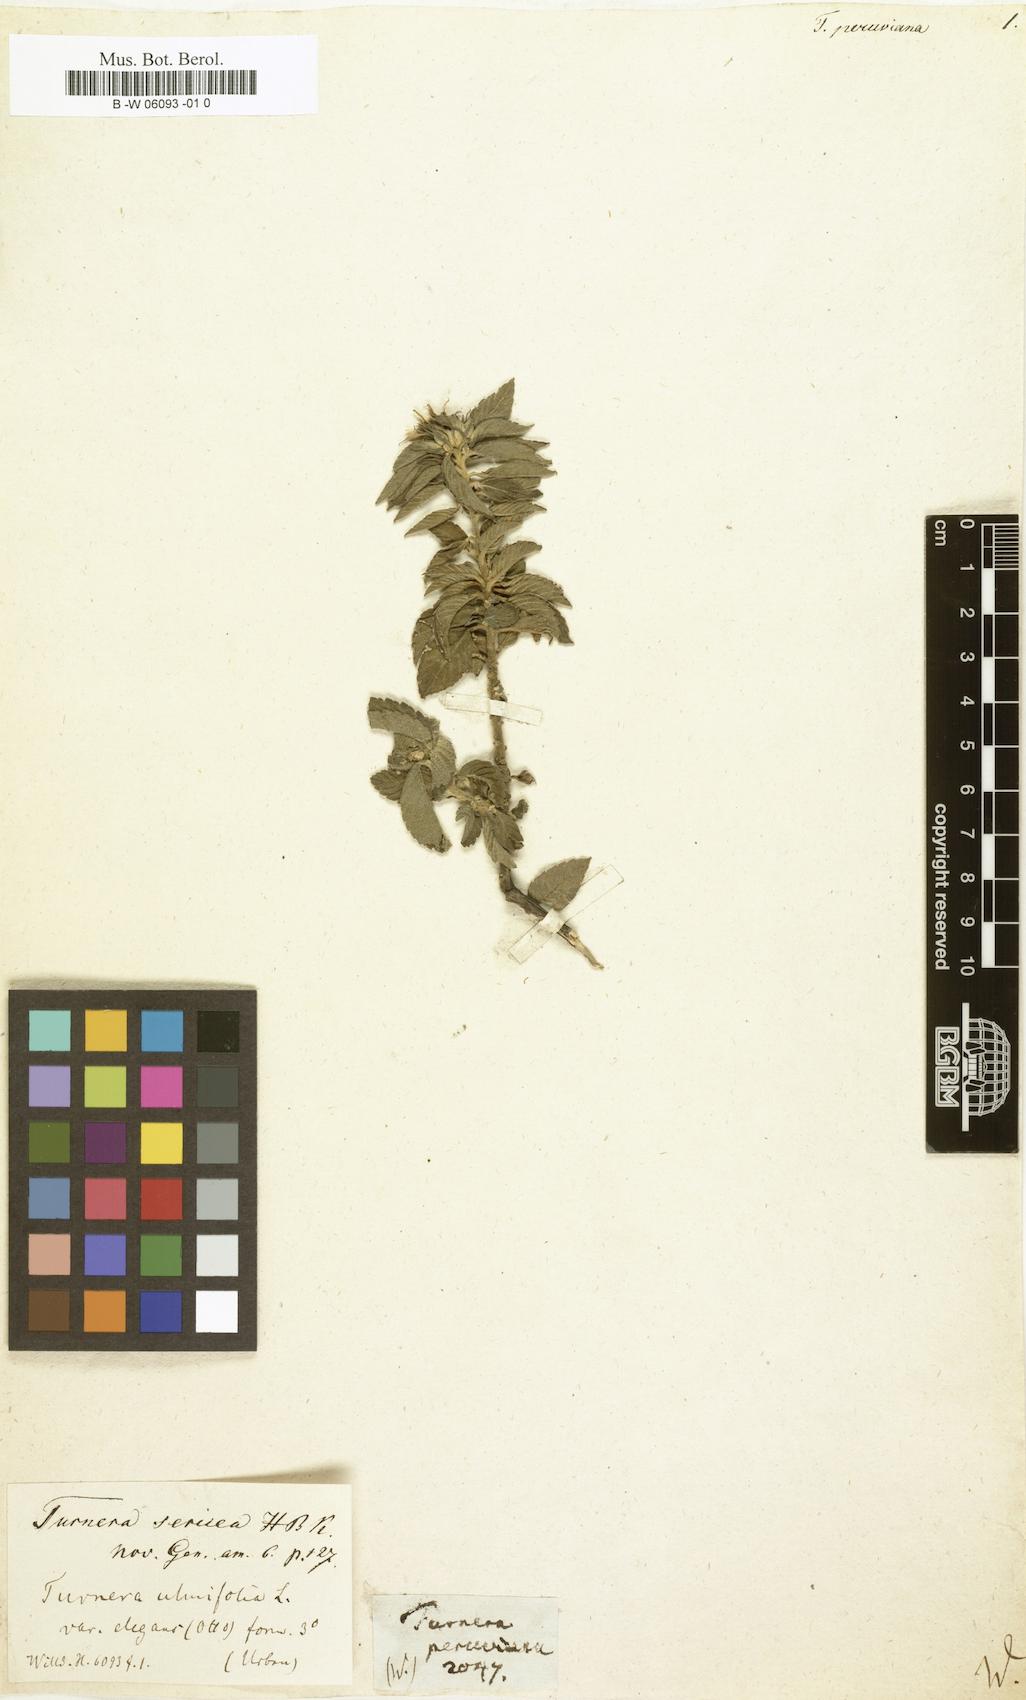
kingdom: Plantae
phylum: Tracheophyta
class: Magnoliopsida
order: Malpighiales
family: Turneraceae
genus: Turnera
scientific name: Turnera peruviana
